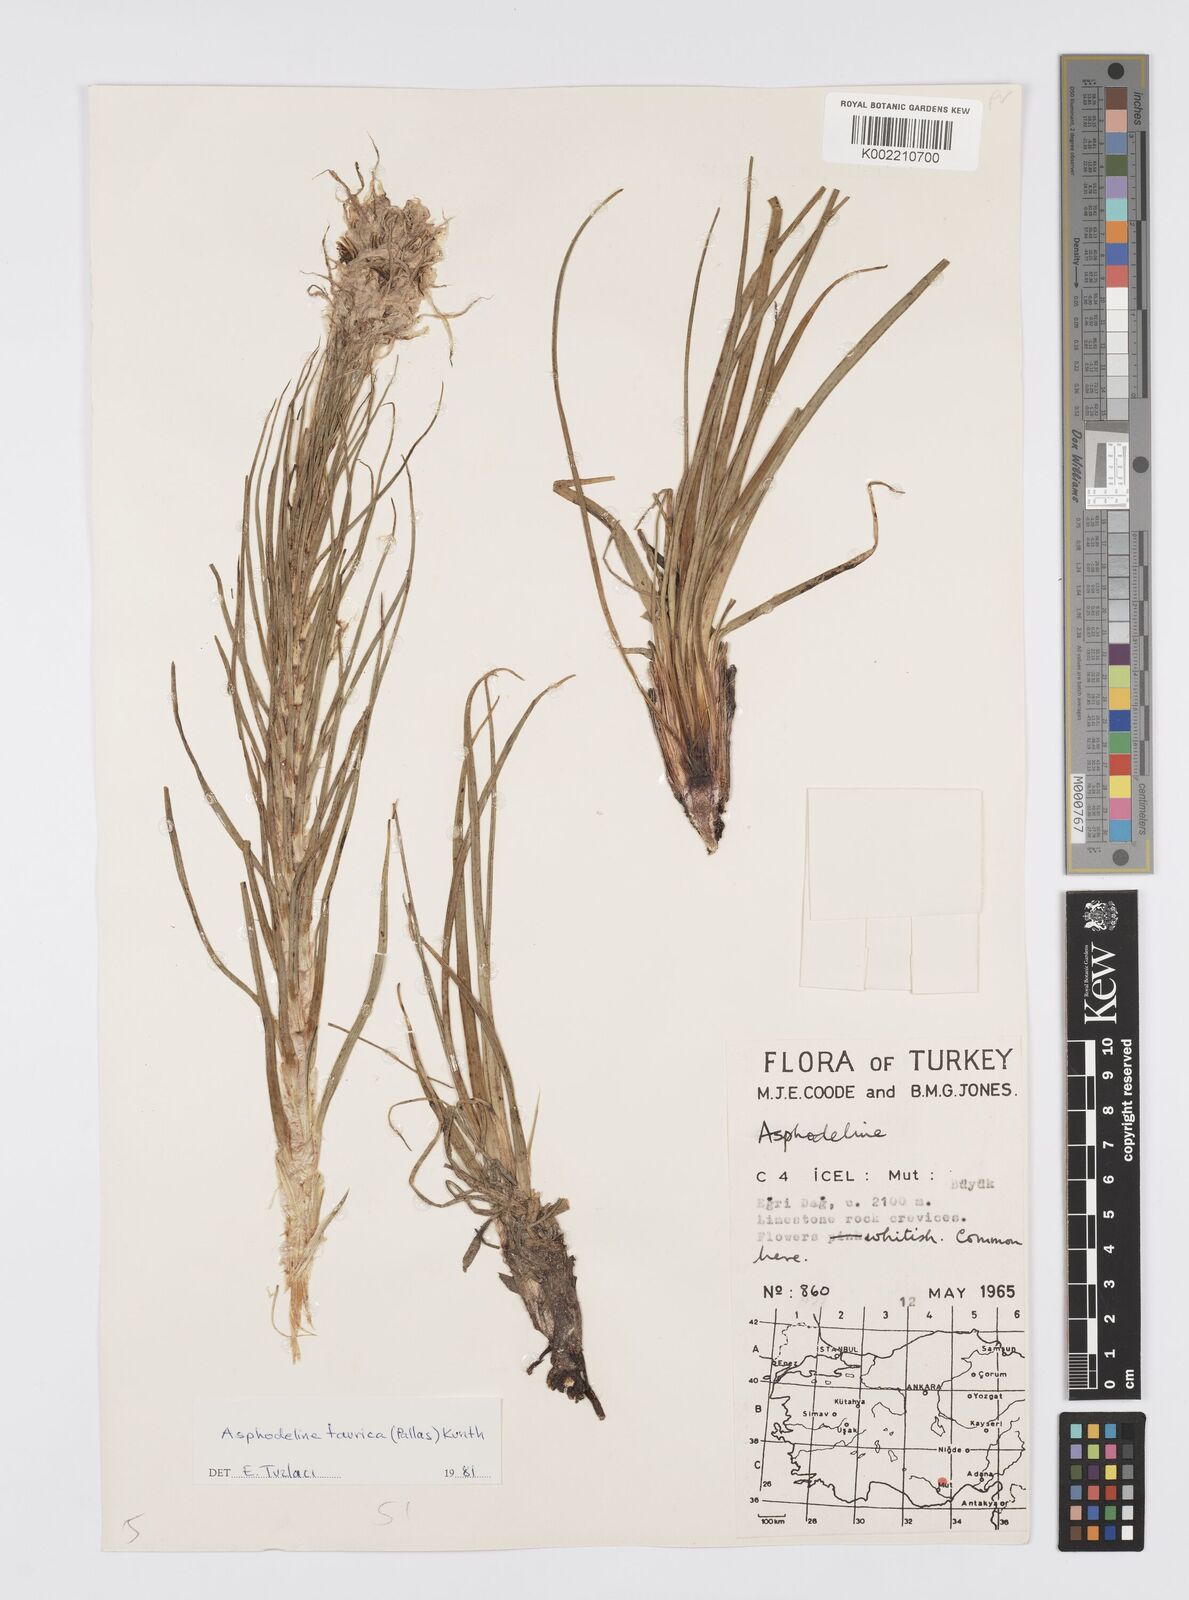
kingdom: Plantae
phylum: Tracheophyta
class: Liliopsida
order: Asparagales
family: Asphodelaceae
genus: Asphodeline
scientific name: Asphodeline taurica
